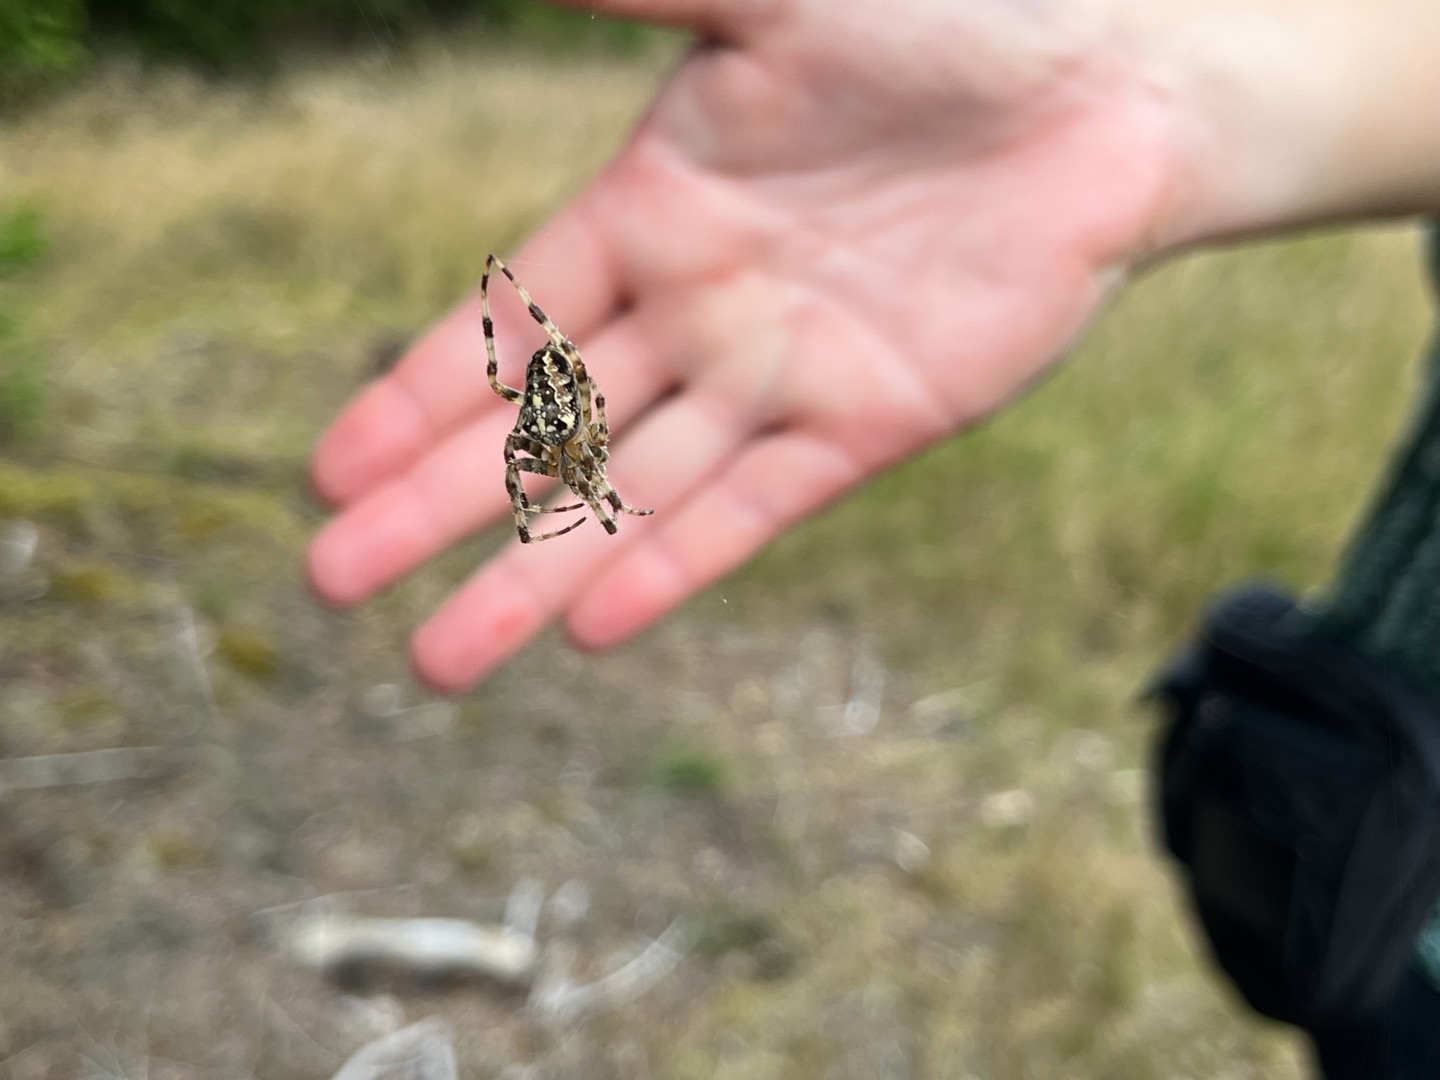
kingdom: Animalia
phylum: Arthropoda
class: Arachnida
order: Araneae
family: Araneidae
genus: Araneus
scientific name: Araneus diadematus
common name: Korsedderkop
